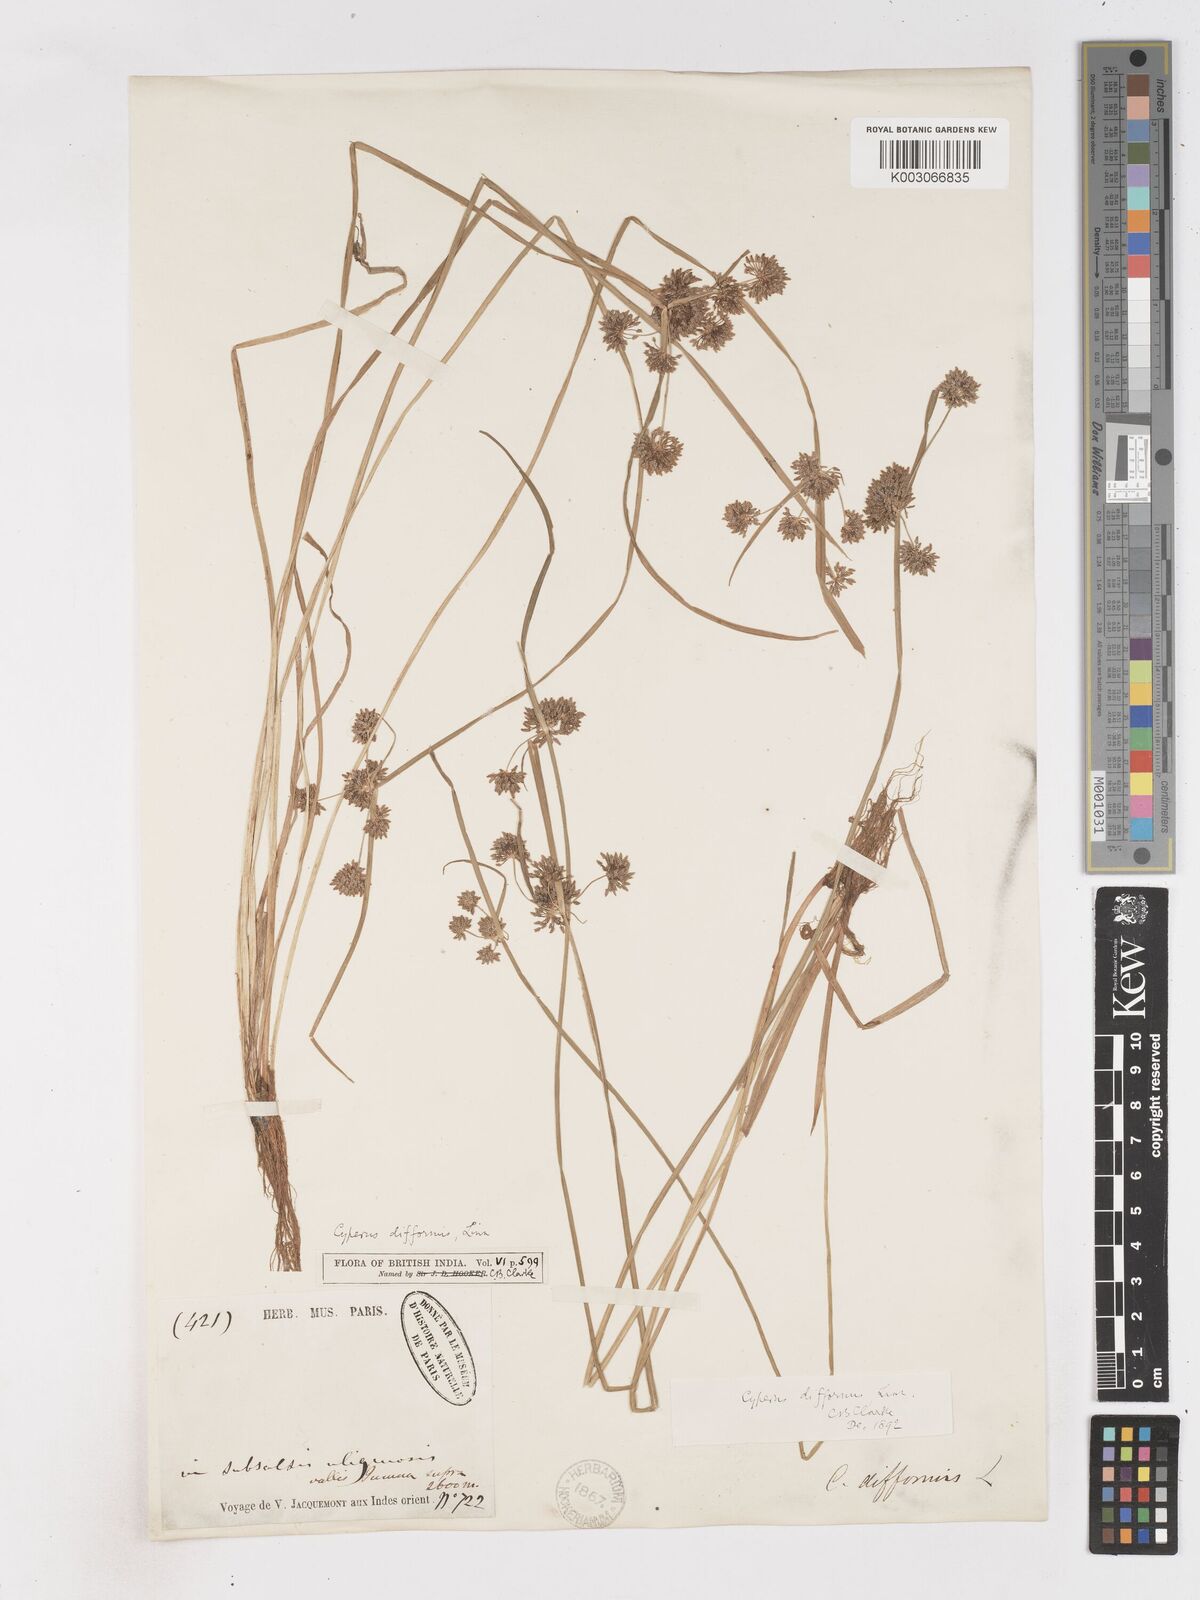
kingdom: Plantae
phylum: Tracheophyta
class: Liliopsida
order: Poales
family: Cyperaceae
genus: Cyperus
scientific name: Cyperus difformis
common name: Variable flatsedge
